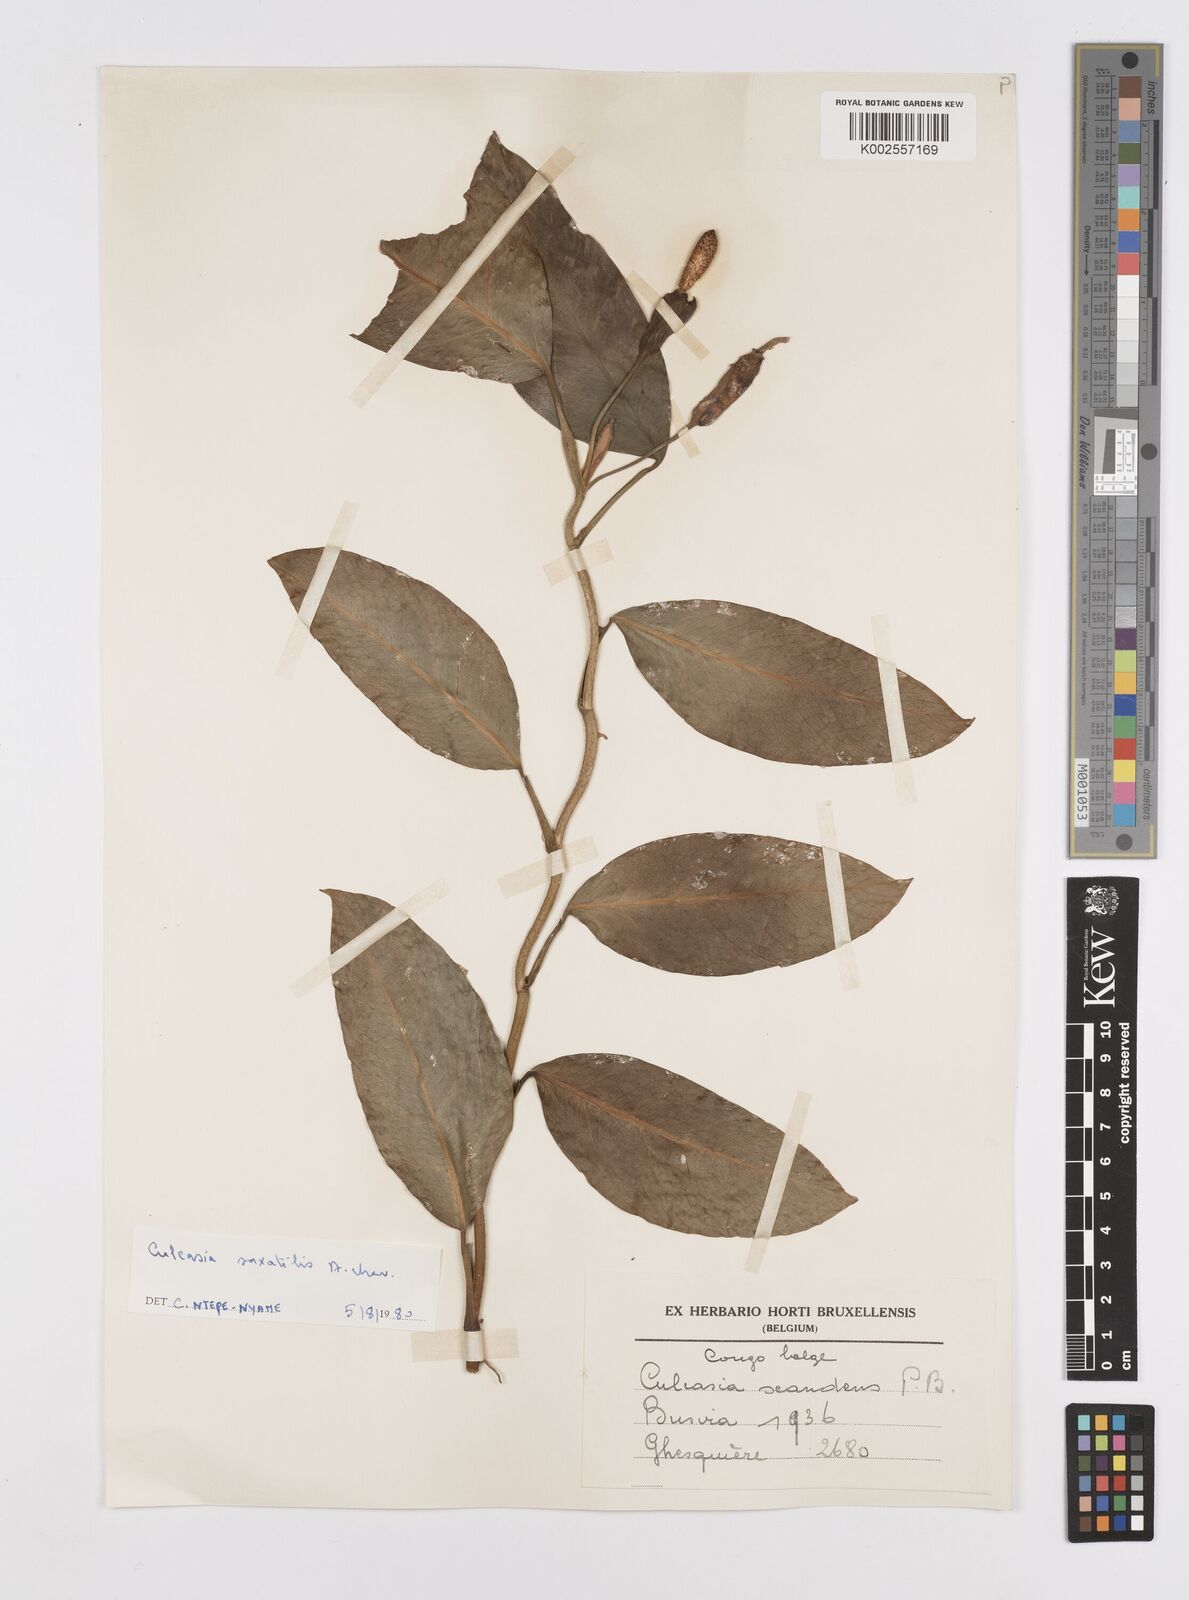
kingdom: Plantae
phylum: Tracheophyta
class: Liliopsida
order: Alismatales
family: Araceae
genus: Culcasia
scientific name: Culcasia scandens
